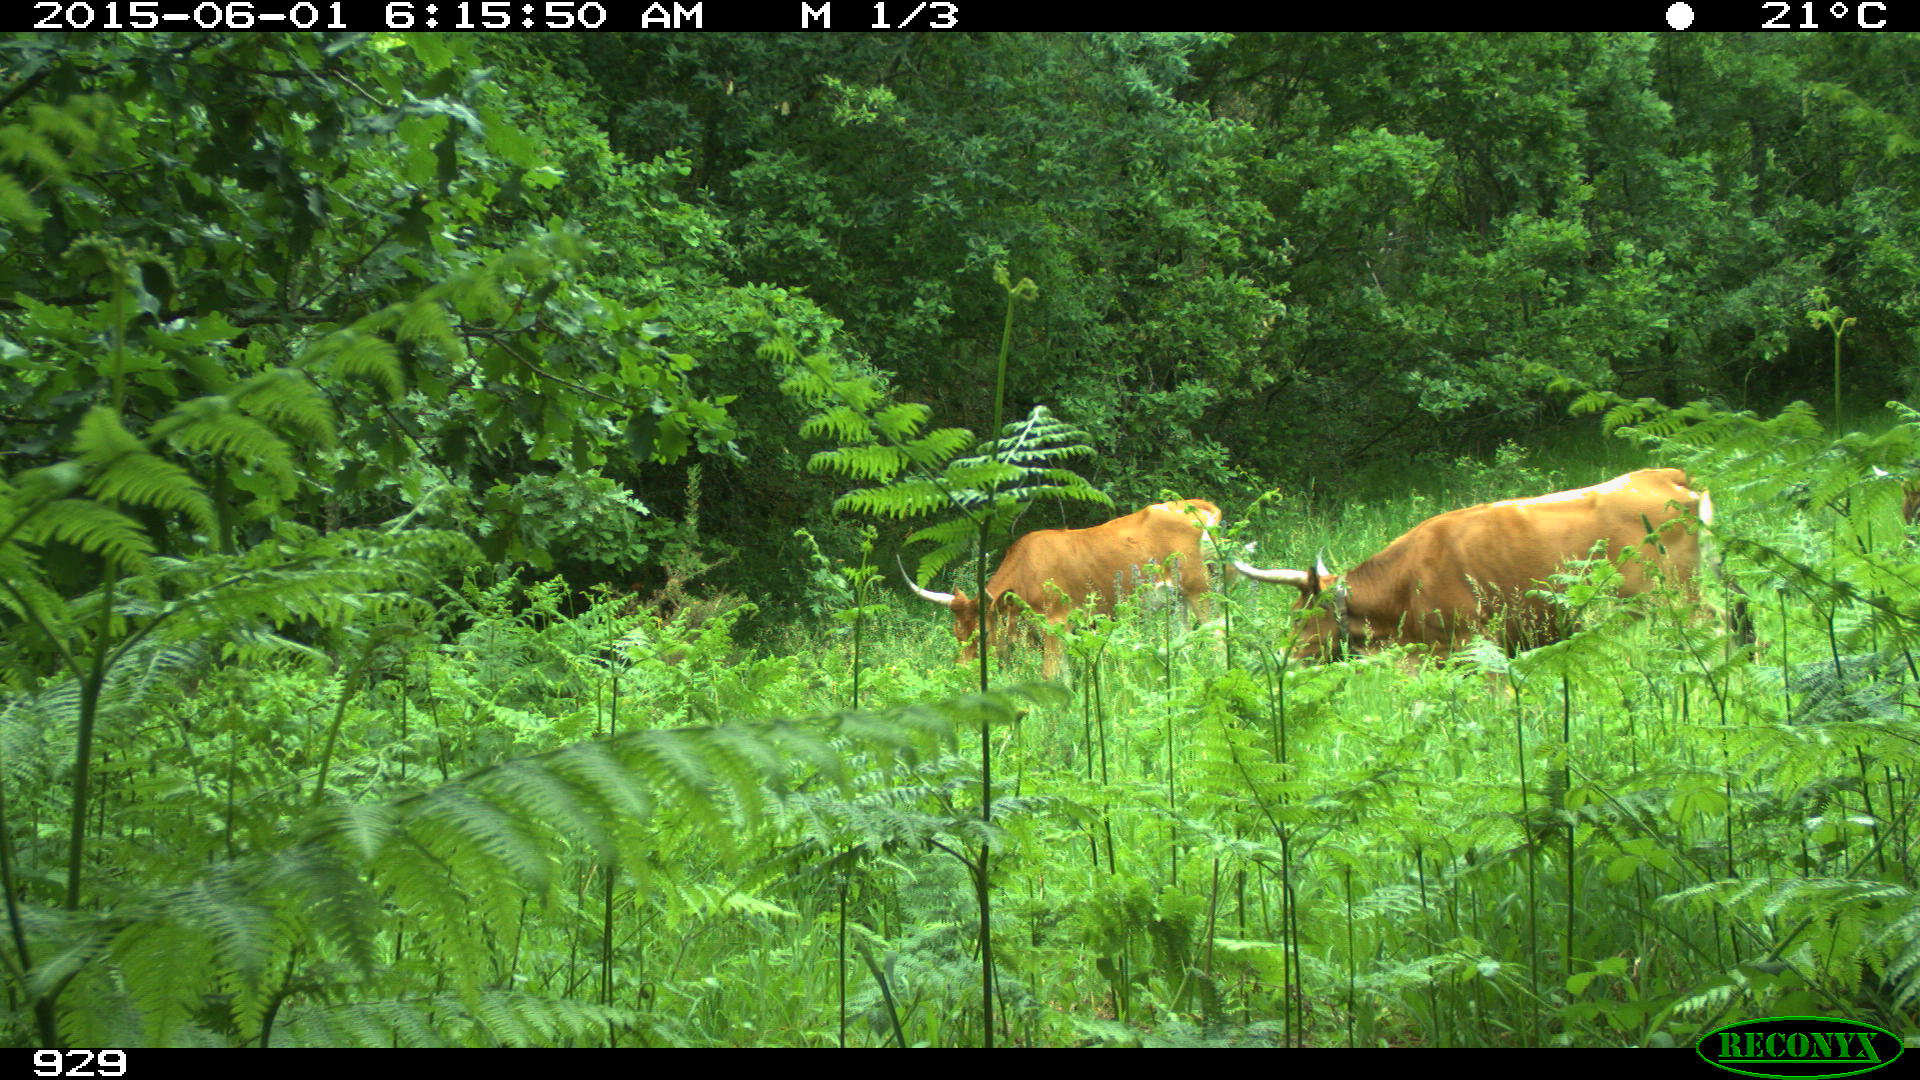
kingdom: Animalia
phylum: Chordata
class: Mammalia
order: Artiodactyla
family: Bovidae
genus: Bos
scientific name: Bos taurus
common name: Domesticated cattle
